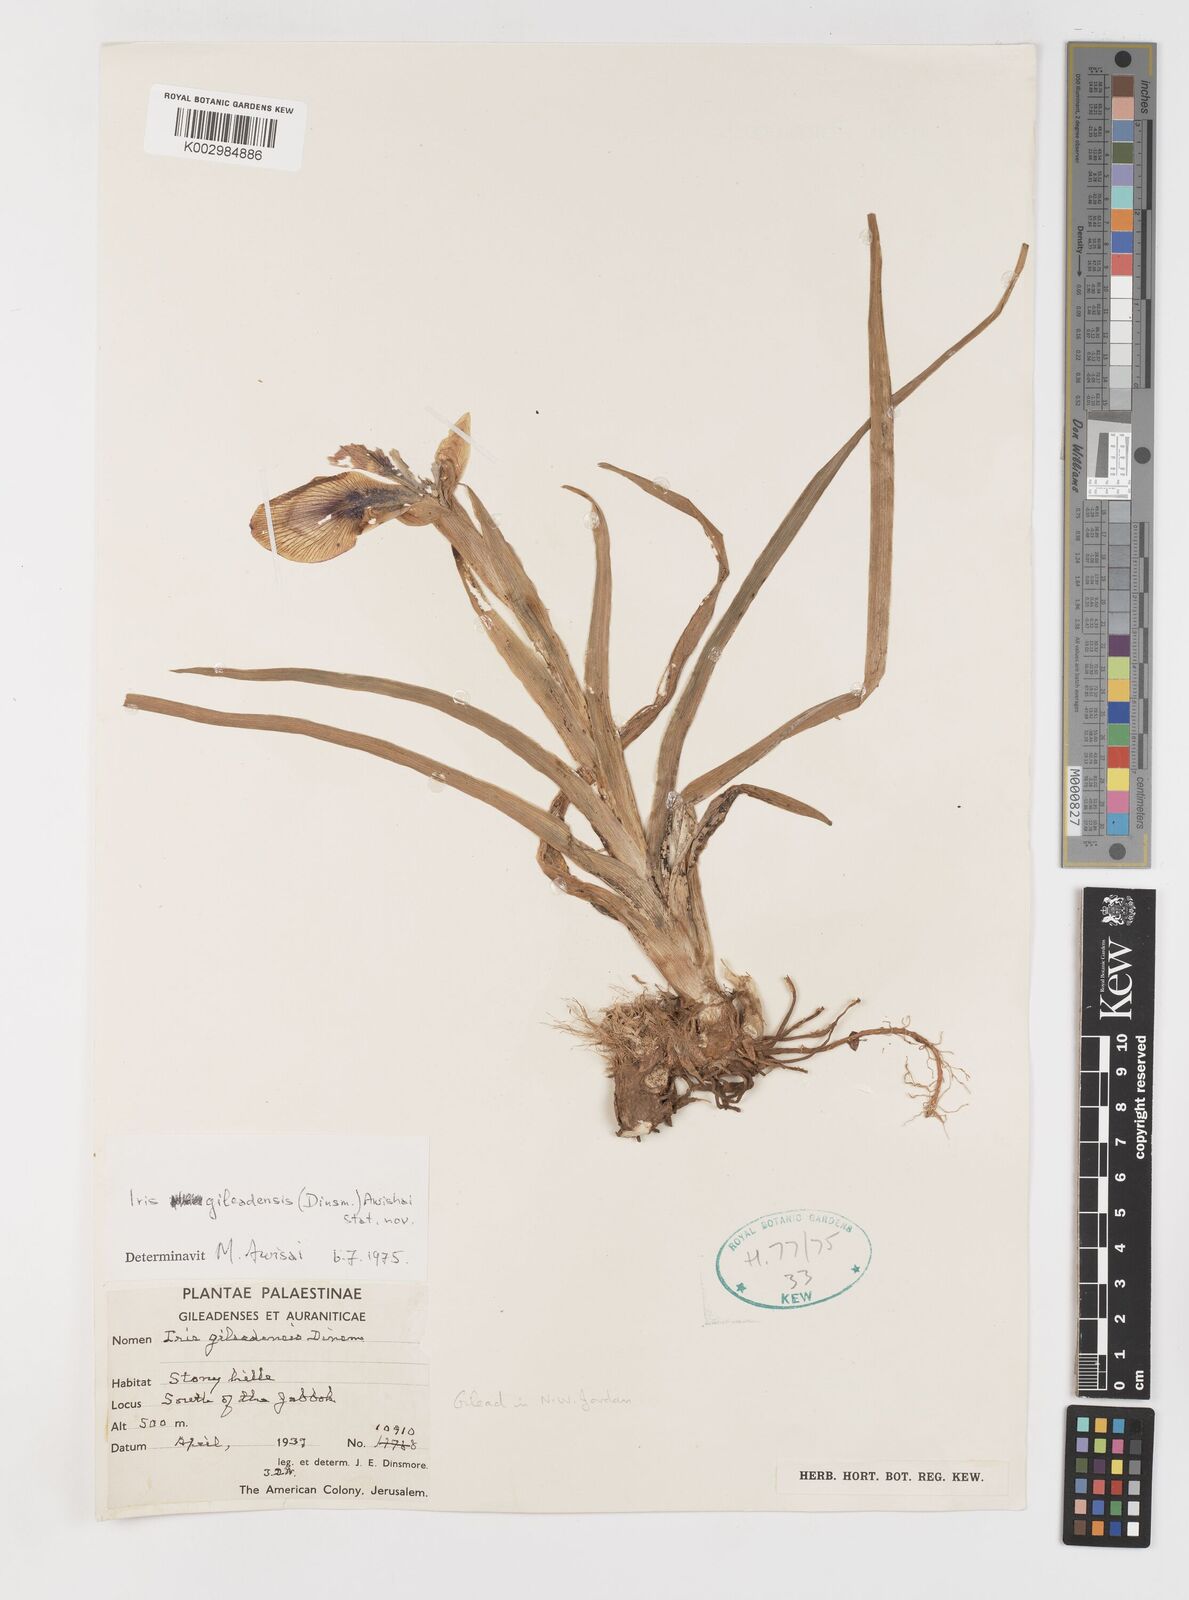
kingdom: Plantae
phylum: Tracheophyta
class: Liliopsida
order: Asparagales
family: Iridaceae
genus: Iris
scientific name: Iris
